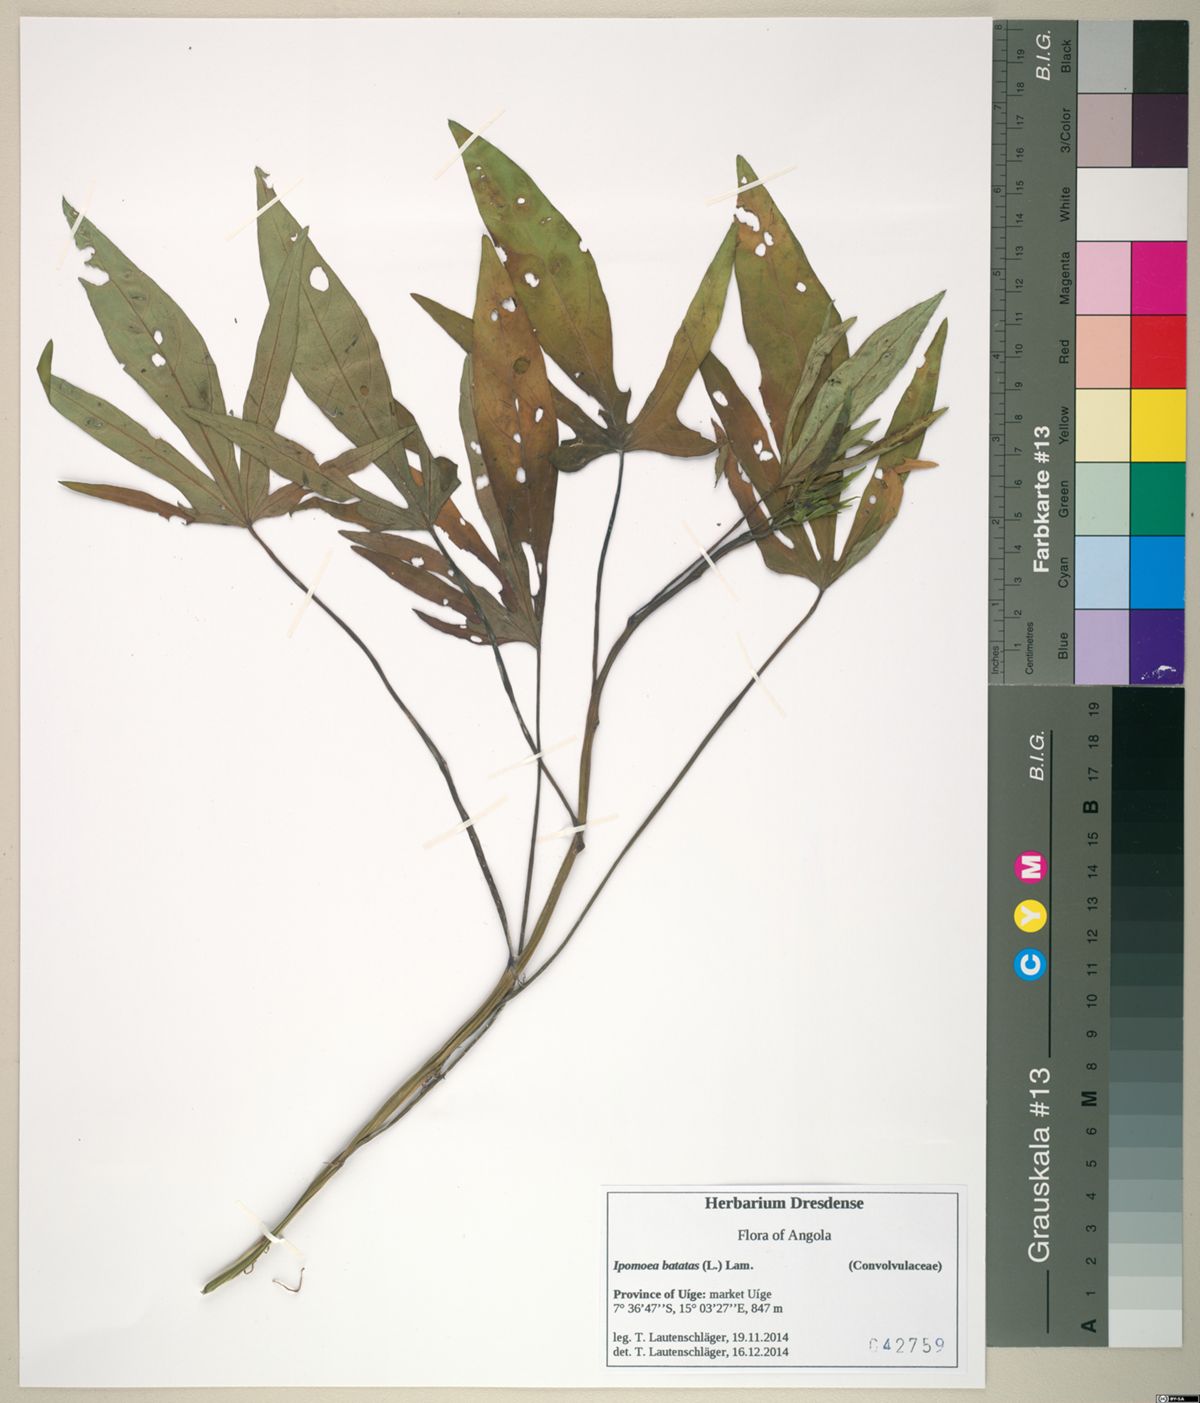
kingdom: Plantae
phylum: Tracheophyta
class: Magnoliopsida
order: Solanales
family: Convolvulaceae
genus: Ipomoea
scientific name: Ipomoea batatas
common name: Sweet-potato
